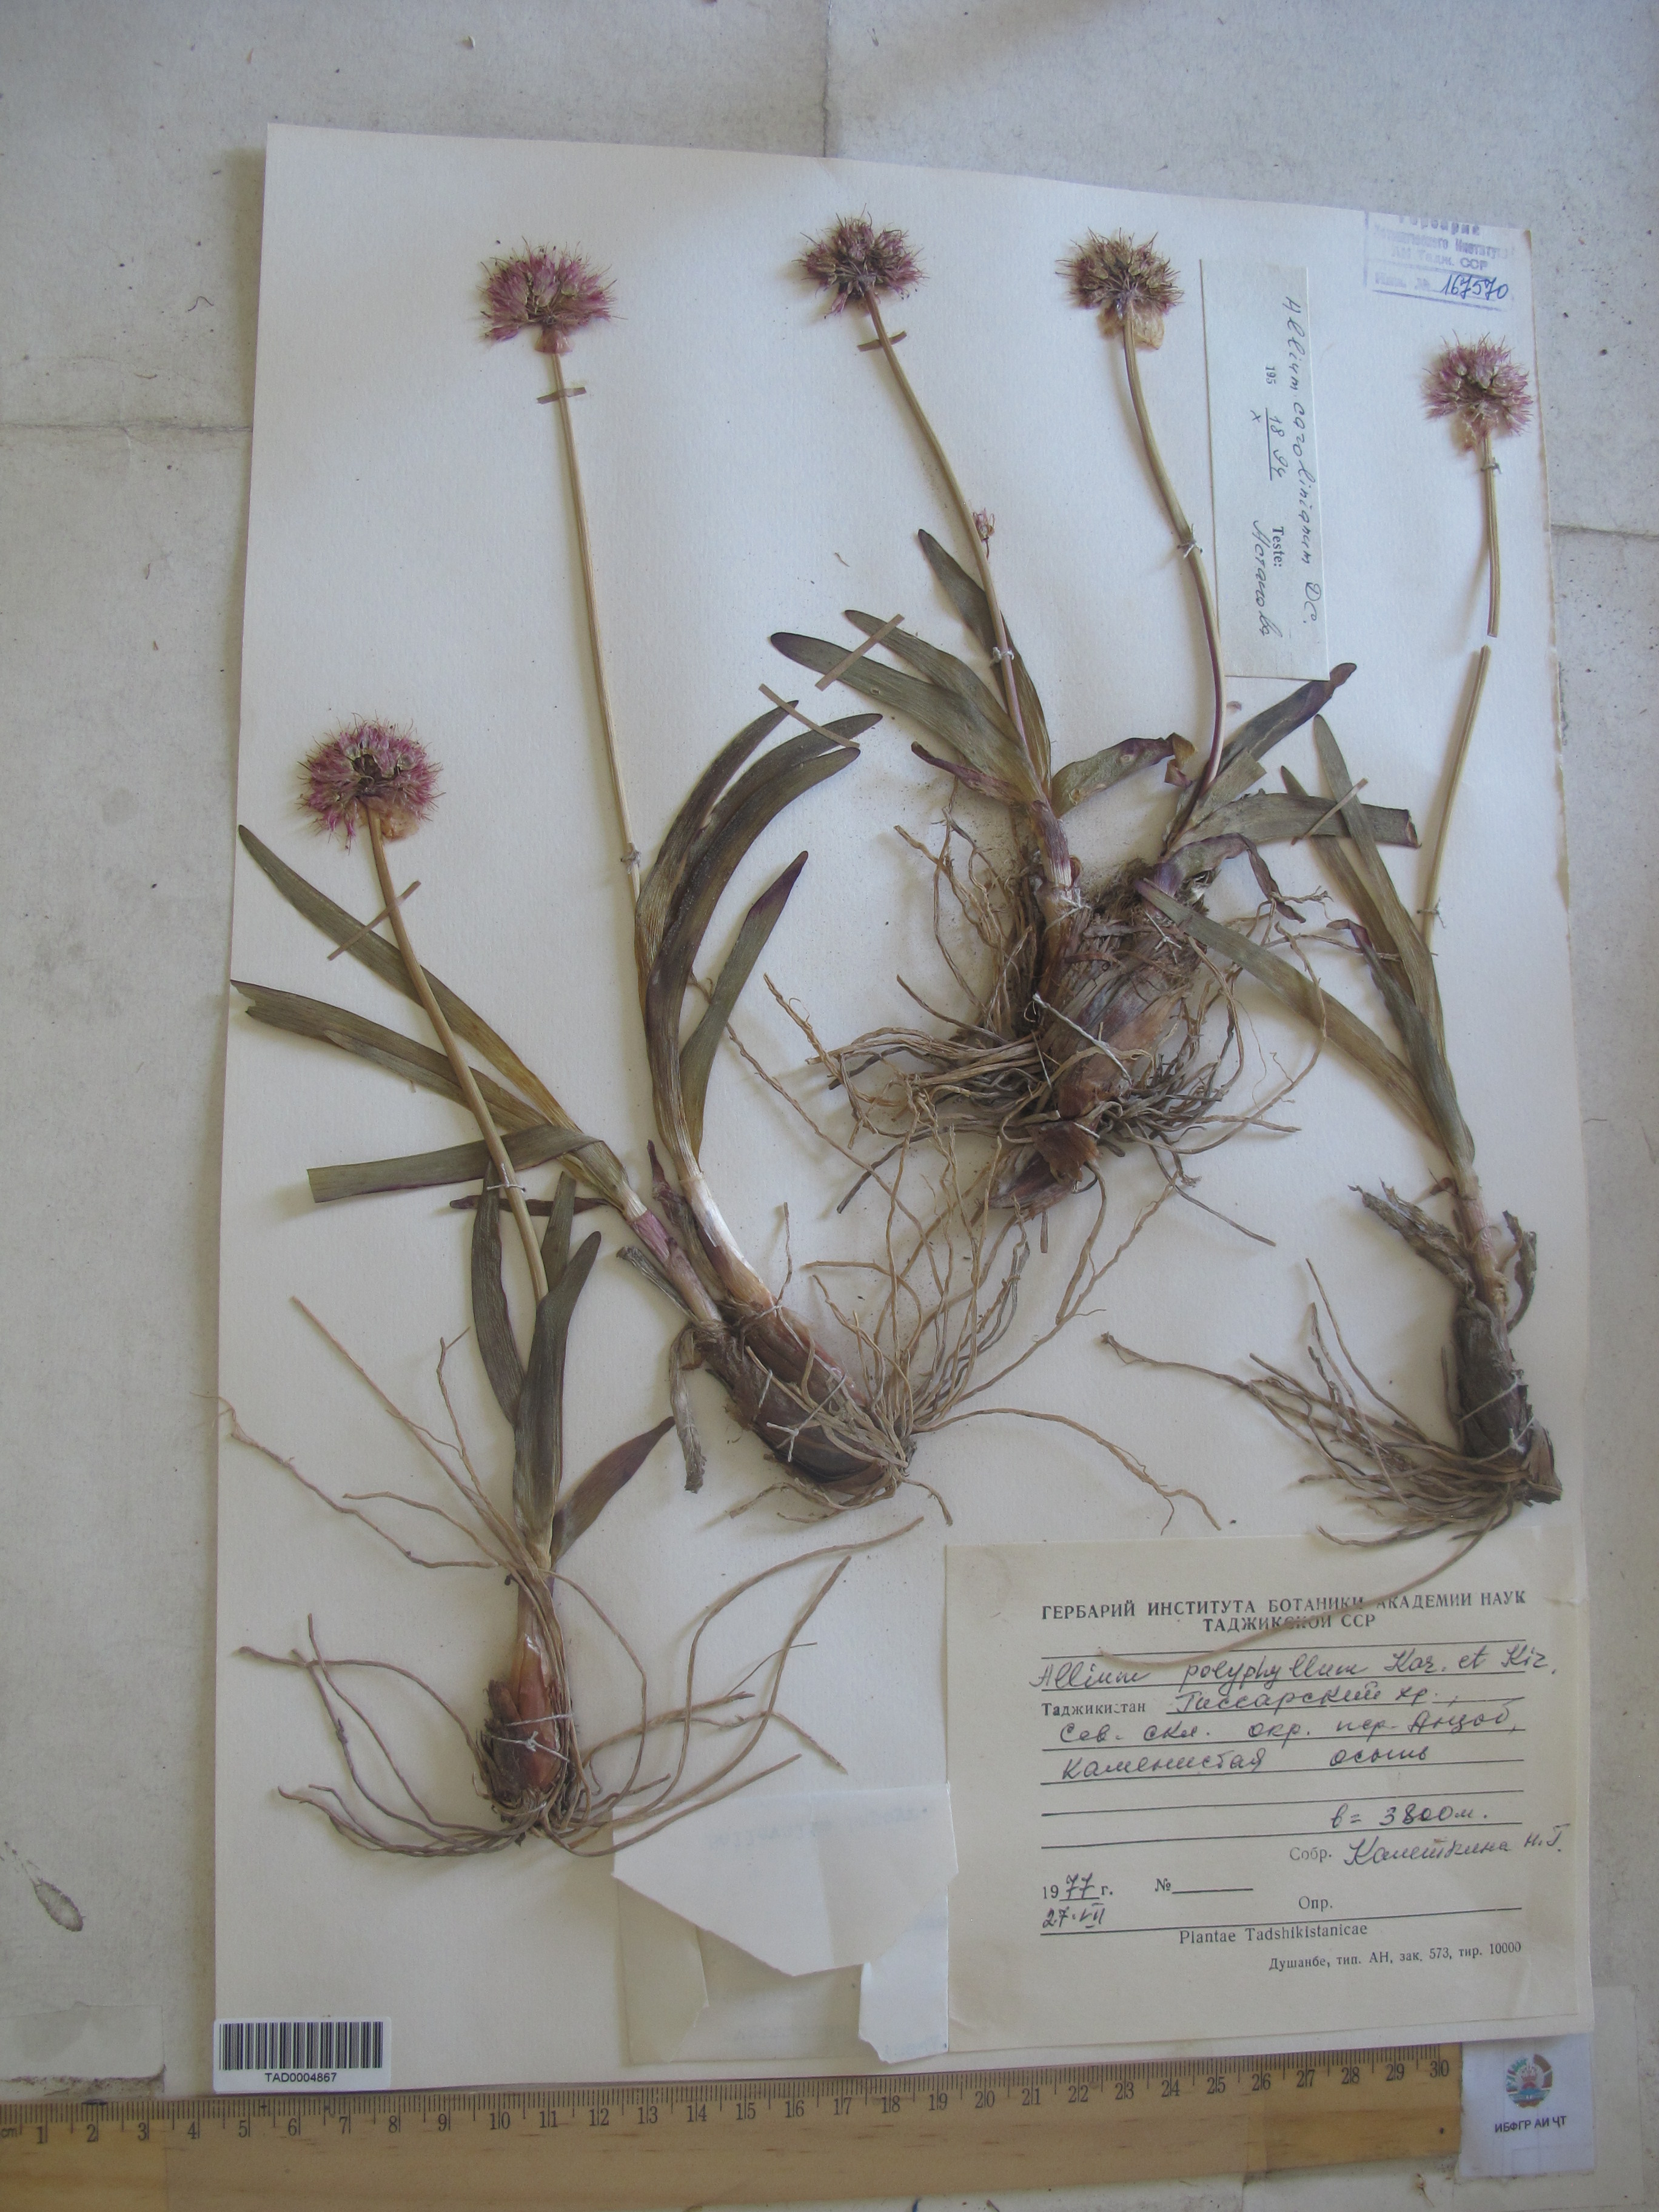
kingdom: Plantae
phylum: Tracheophyta
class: Liliopsida
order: Asparagales
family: Amaryllidaceae
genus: Allium
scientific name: Allium carolinianum
